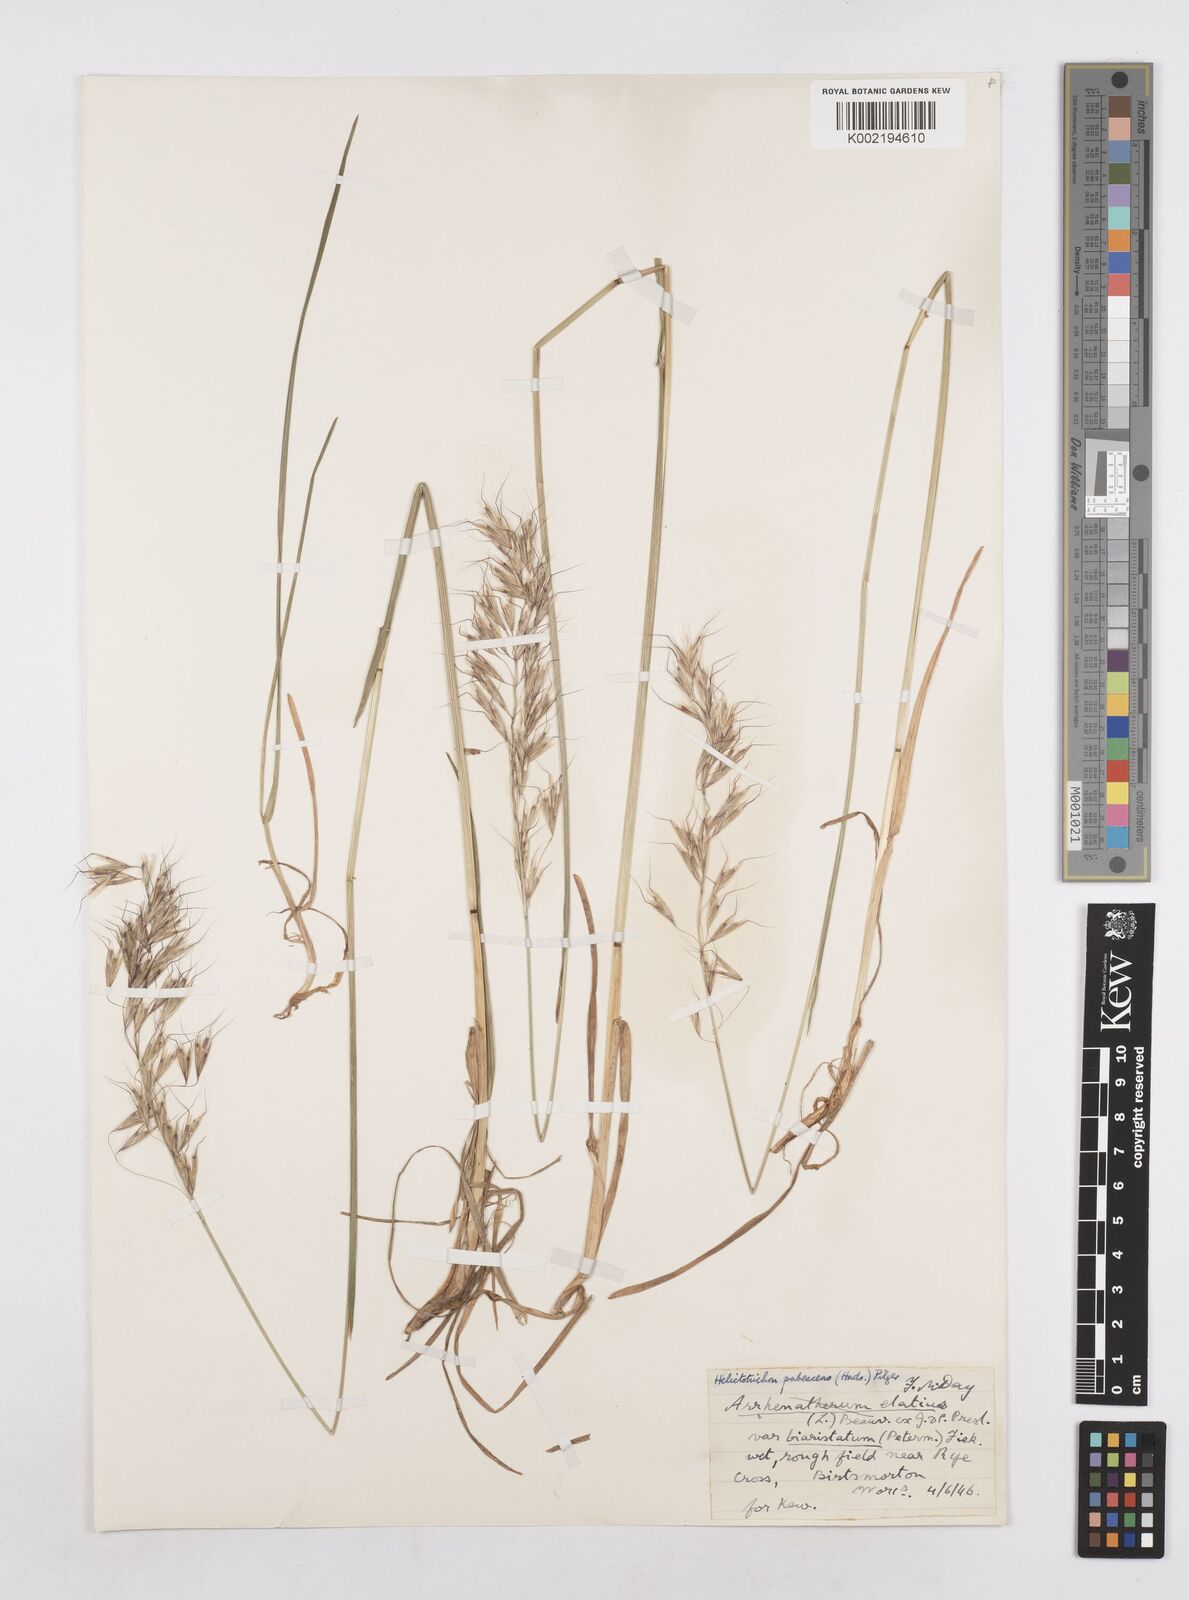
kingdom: Plantae
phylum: Tracheophyta
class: Liliopsida
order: Poales
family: Poaceae
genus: Avenula
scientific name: Avenula pubescens
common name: Downy alpine oatgrass
